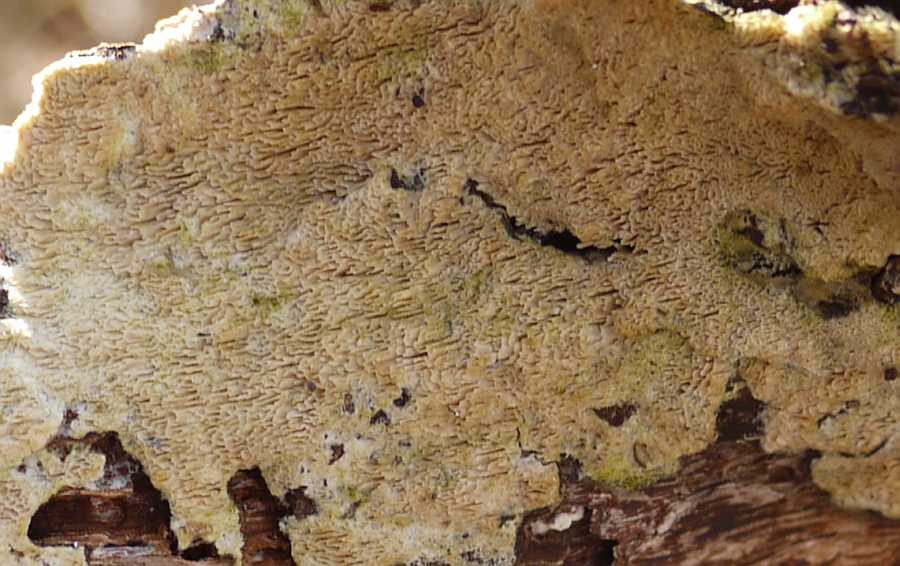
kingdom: Fungi
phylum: Basidiomycota
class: Agaricomycetes
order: Hymenochaetales
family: Schizoporaceae
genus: Schizopora
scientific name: Schizopora paradoxa
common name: hvid tandsvamp
